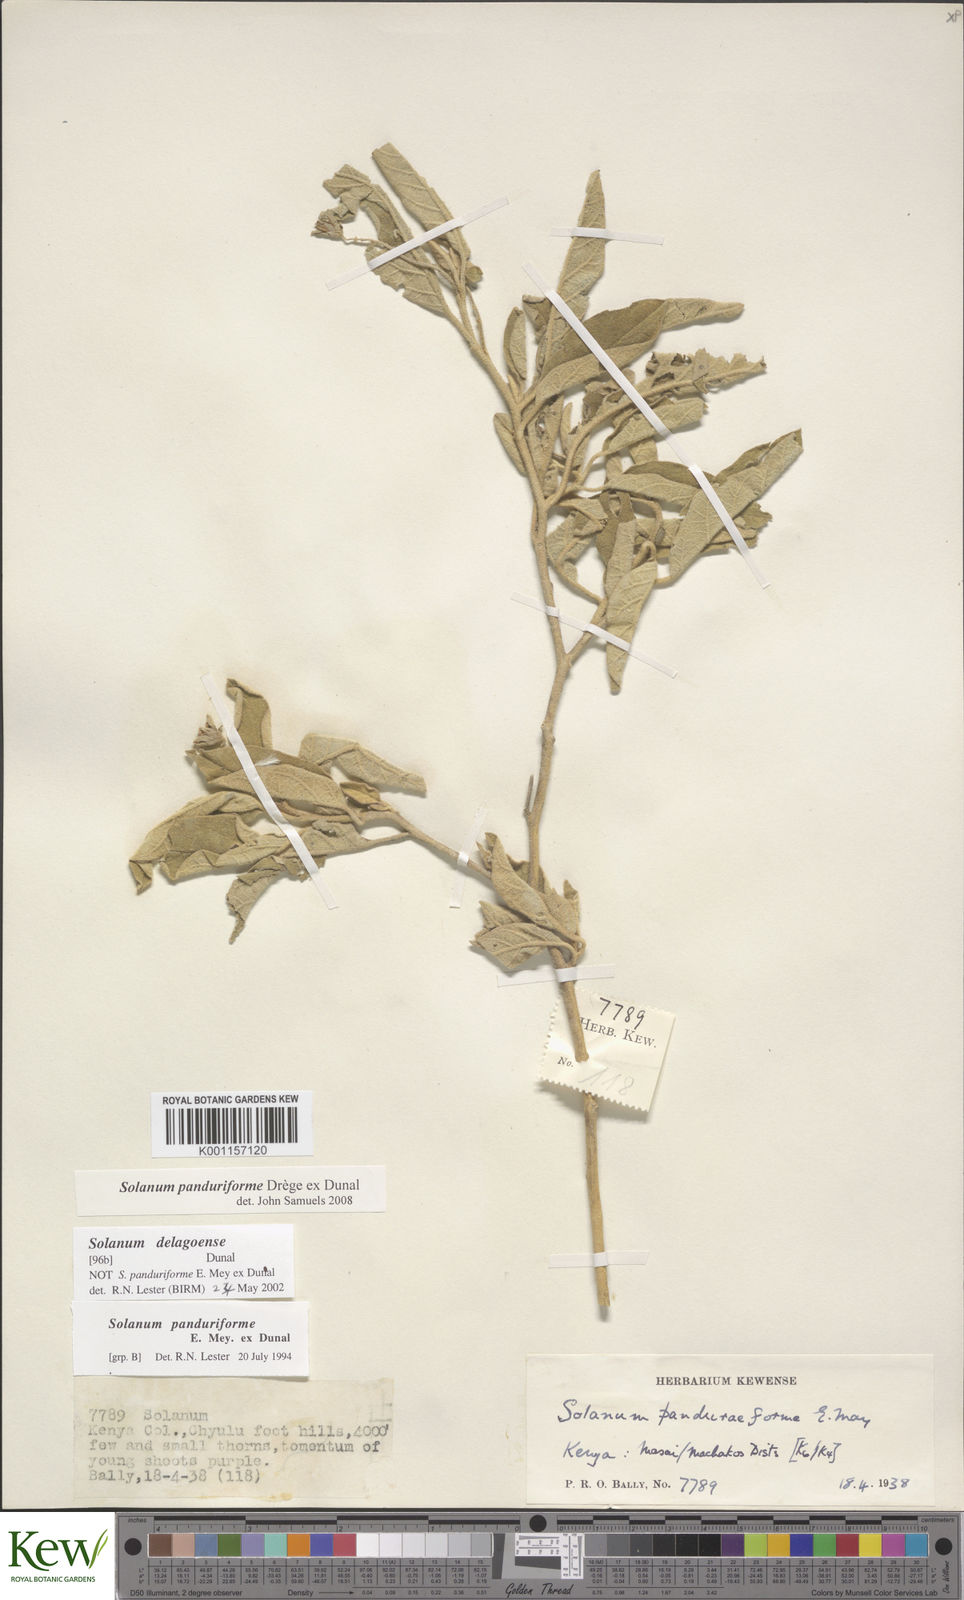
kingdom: Plantae
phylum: Tracheophyta
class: Magnoliopsida
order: Solanales
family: Solanaceae
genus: Solanum
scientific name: Solanum campylacanthum
